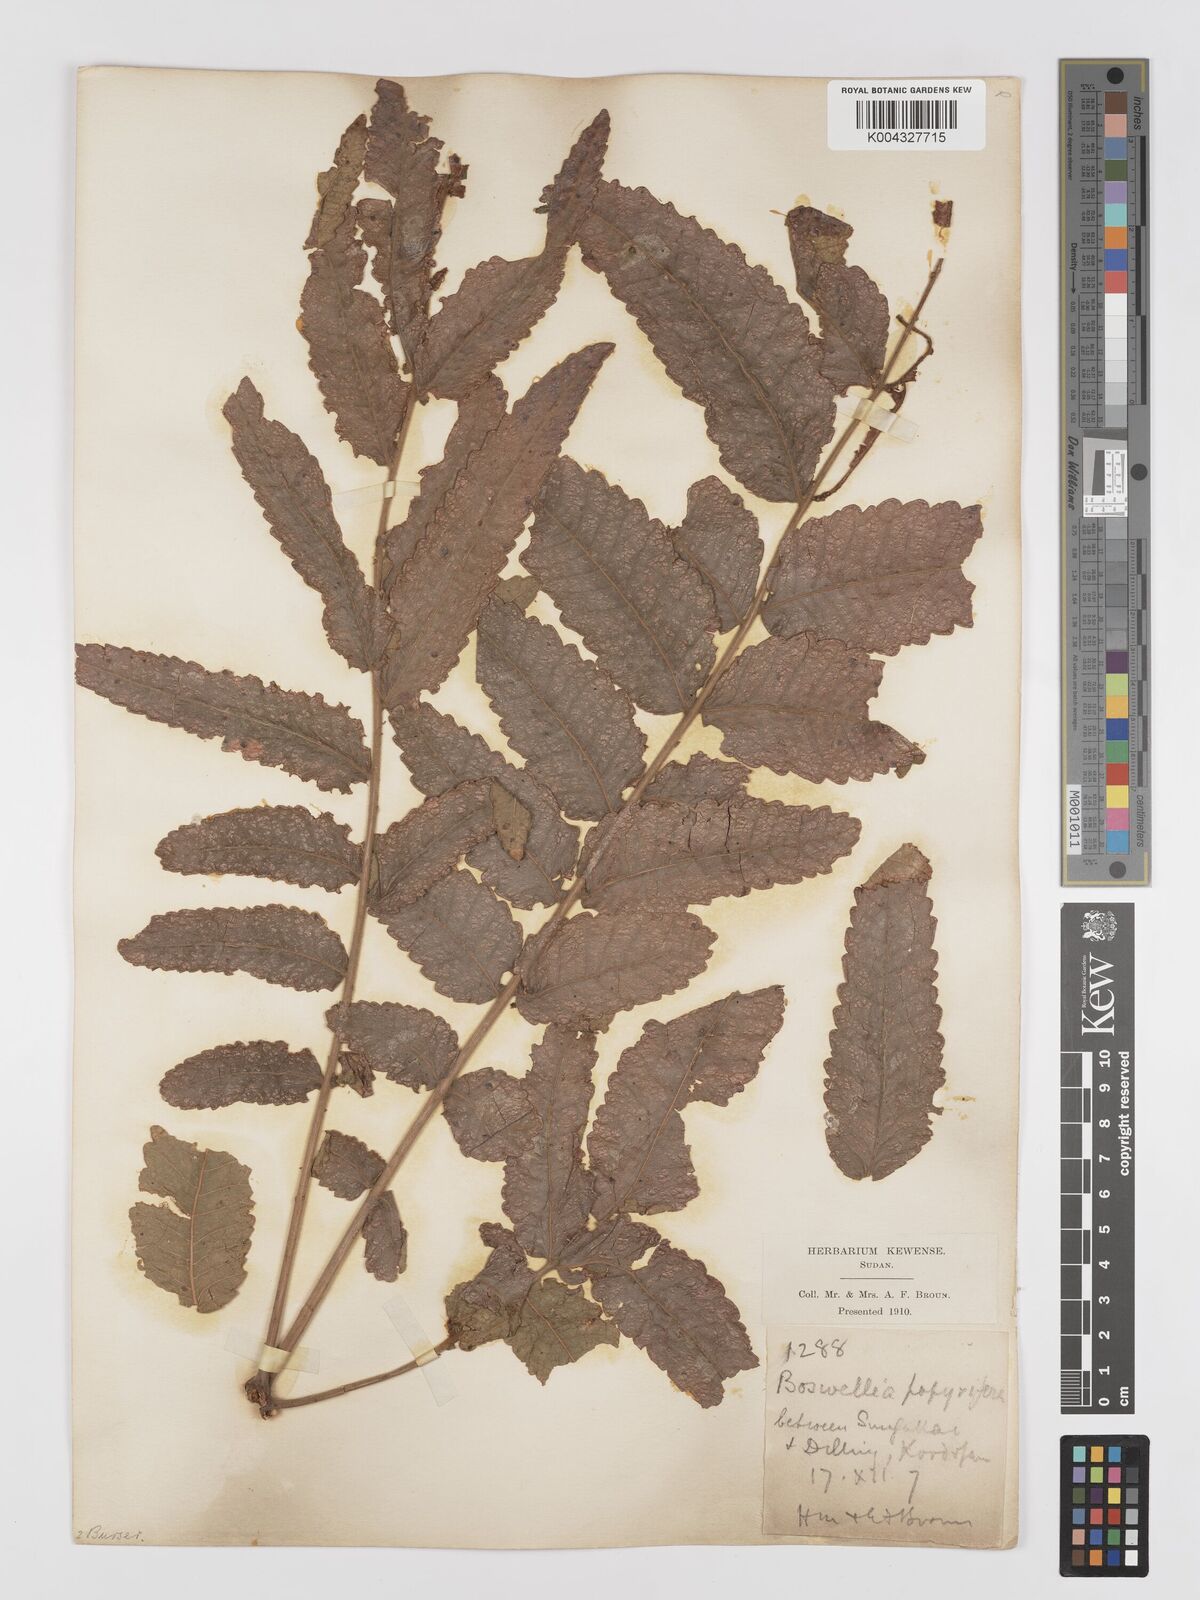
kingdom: Plantae
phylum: Tracheophyta
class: Magnoliopsida
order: Sapindales
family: Burseraceae
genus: Boswellia
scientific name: Boswellia papyrifera
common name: Sudanese frankincense
